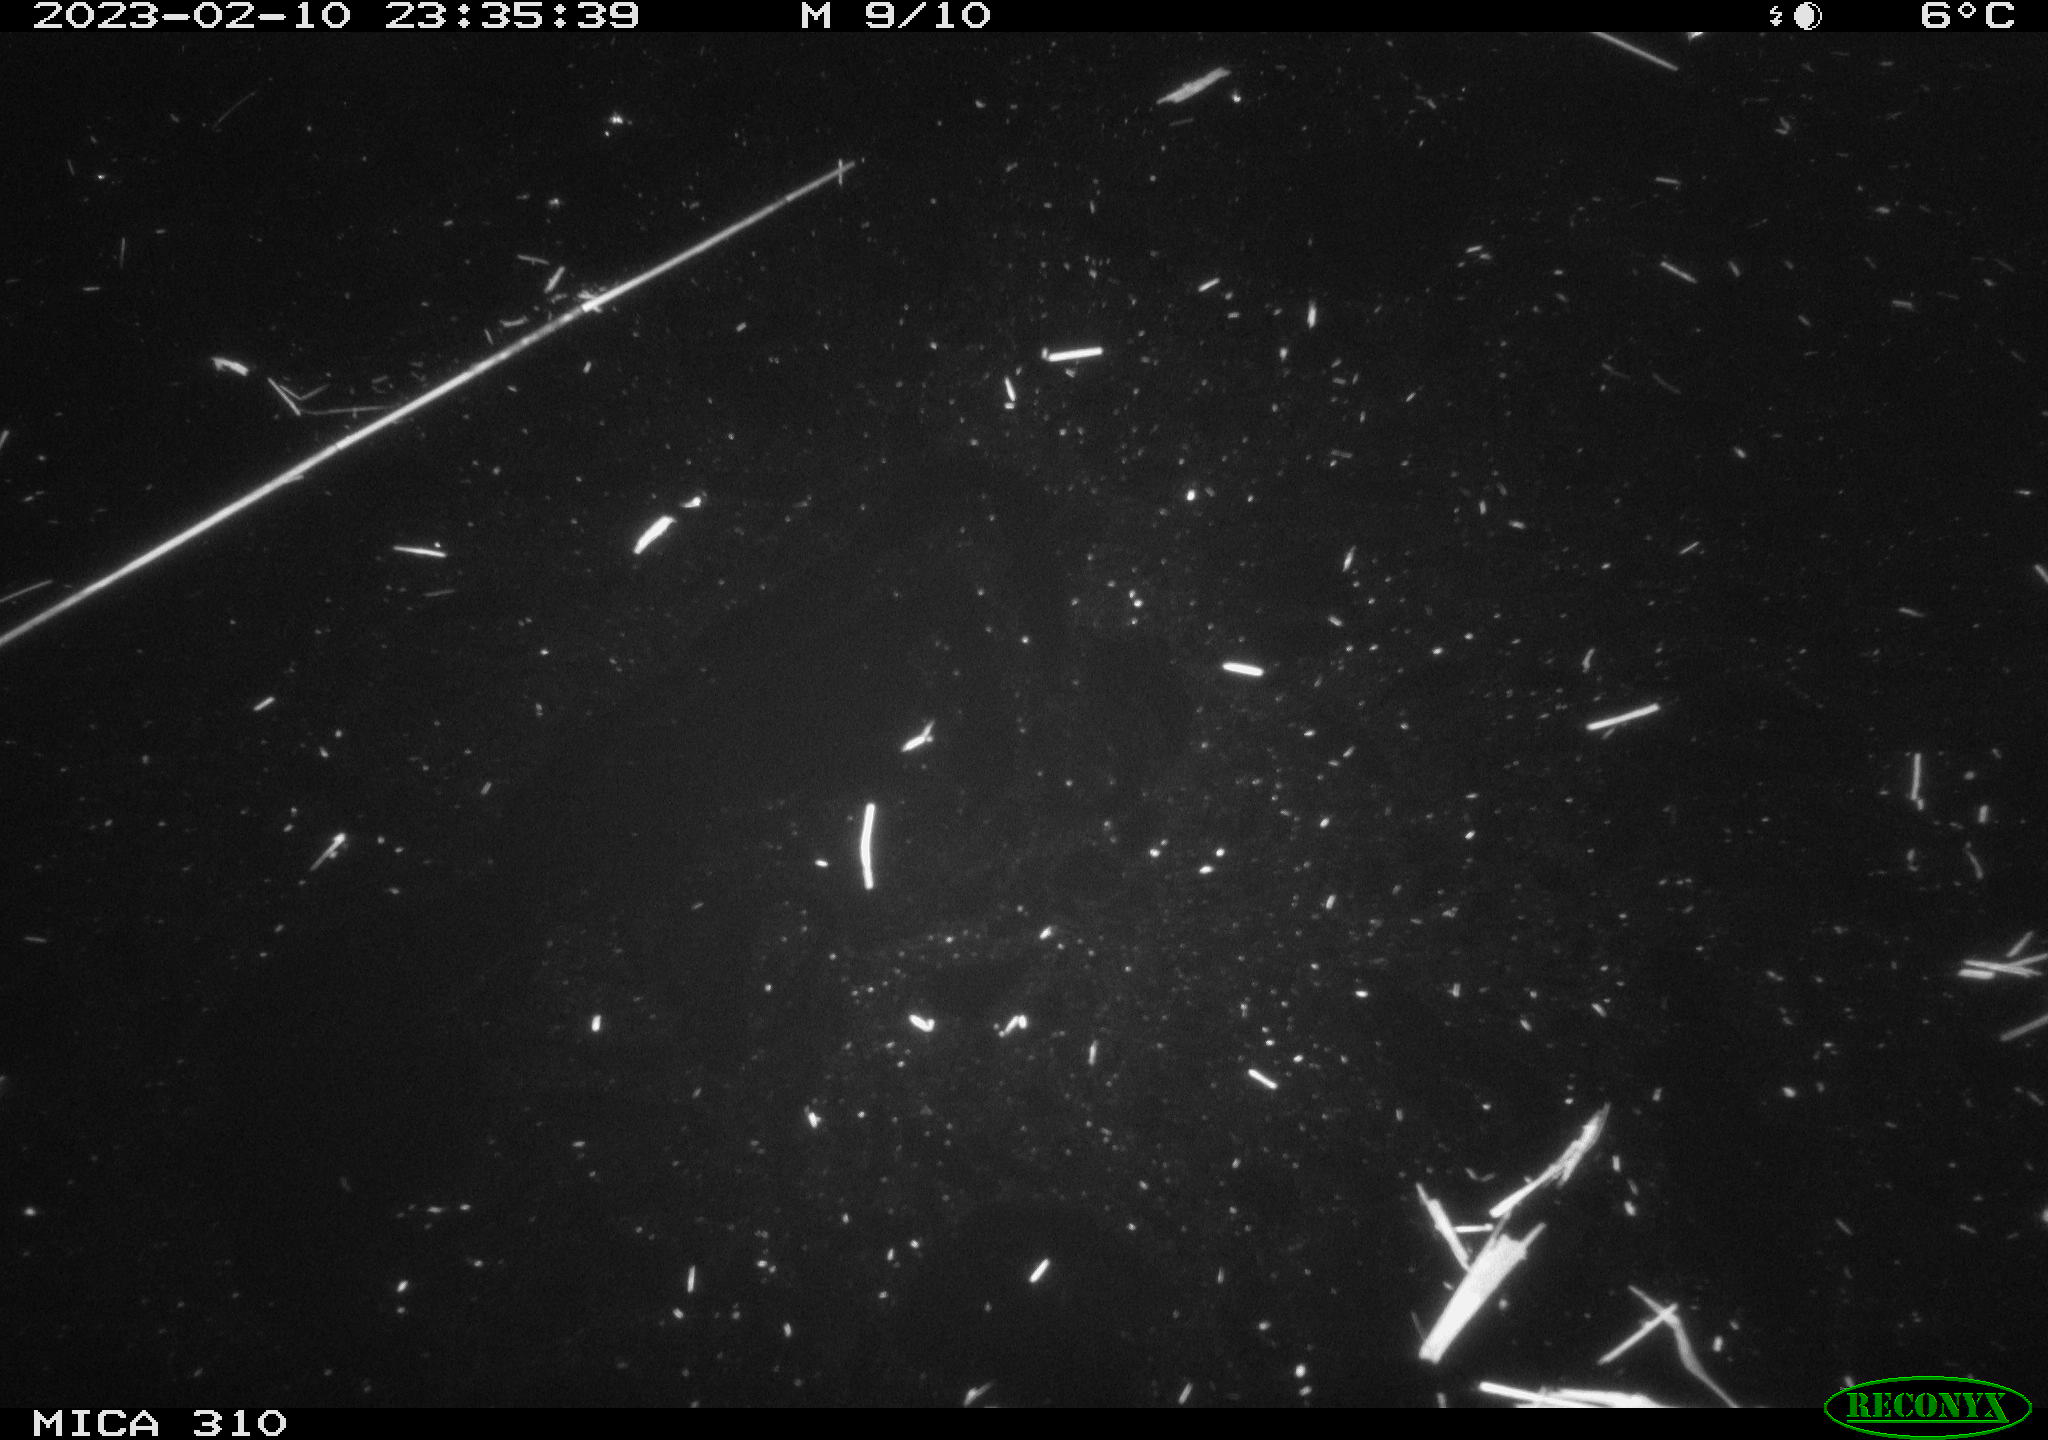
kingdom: Animalia
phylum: Chordata
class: Mammalia
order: Rodentia
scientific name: Rodentia
